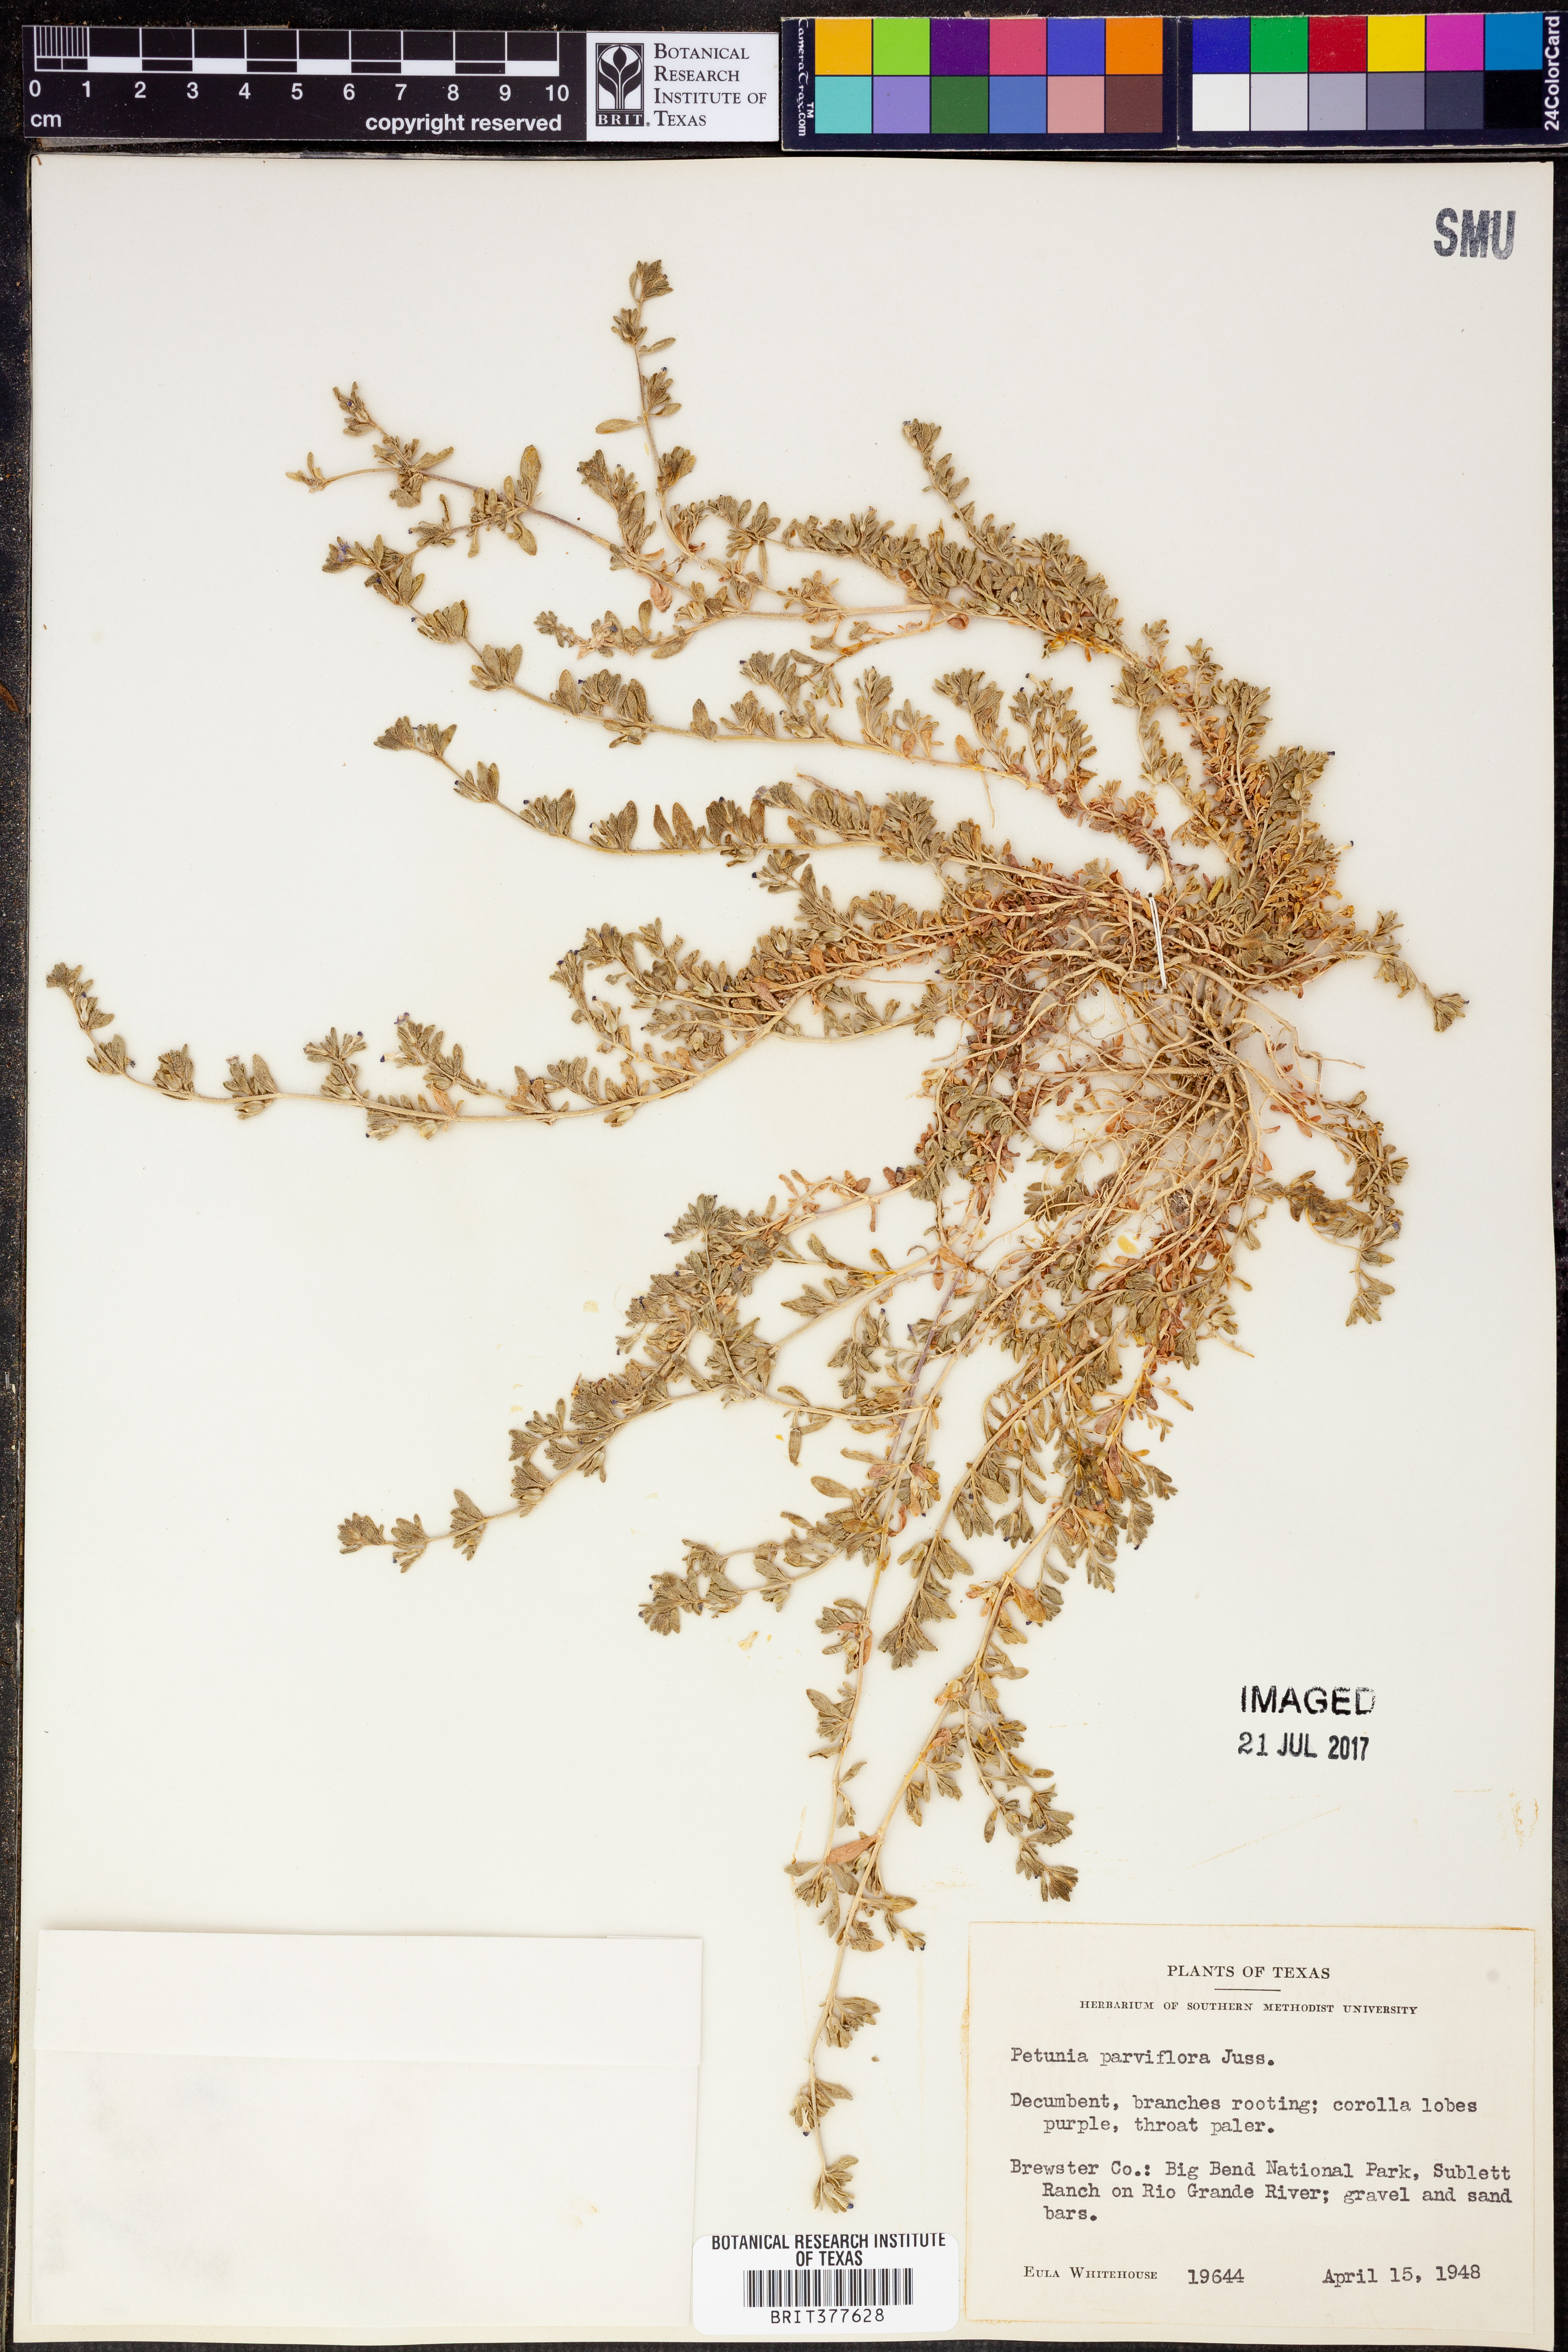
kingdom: Plantae
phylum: Tracheophyta
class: Magnoliopsida
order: Solanales
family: Solanaceae
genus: Calibrachoa
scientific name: Calibrachoa parviflora
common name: Seaside petunia
